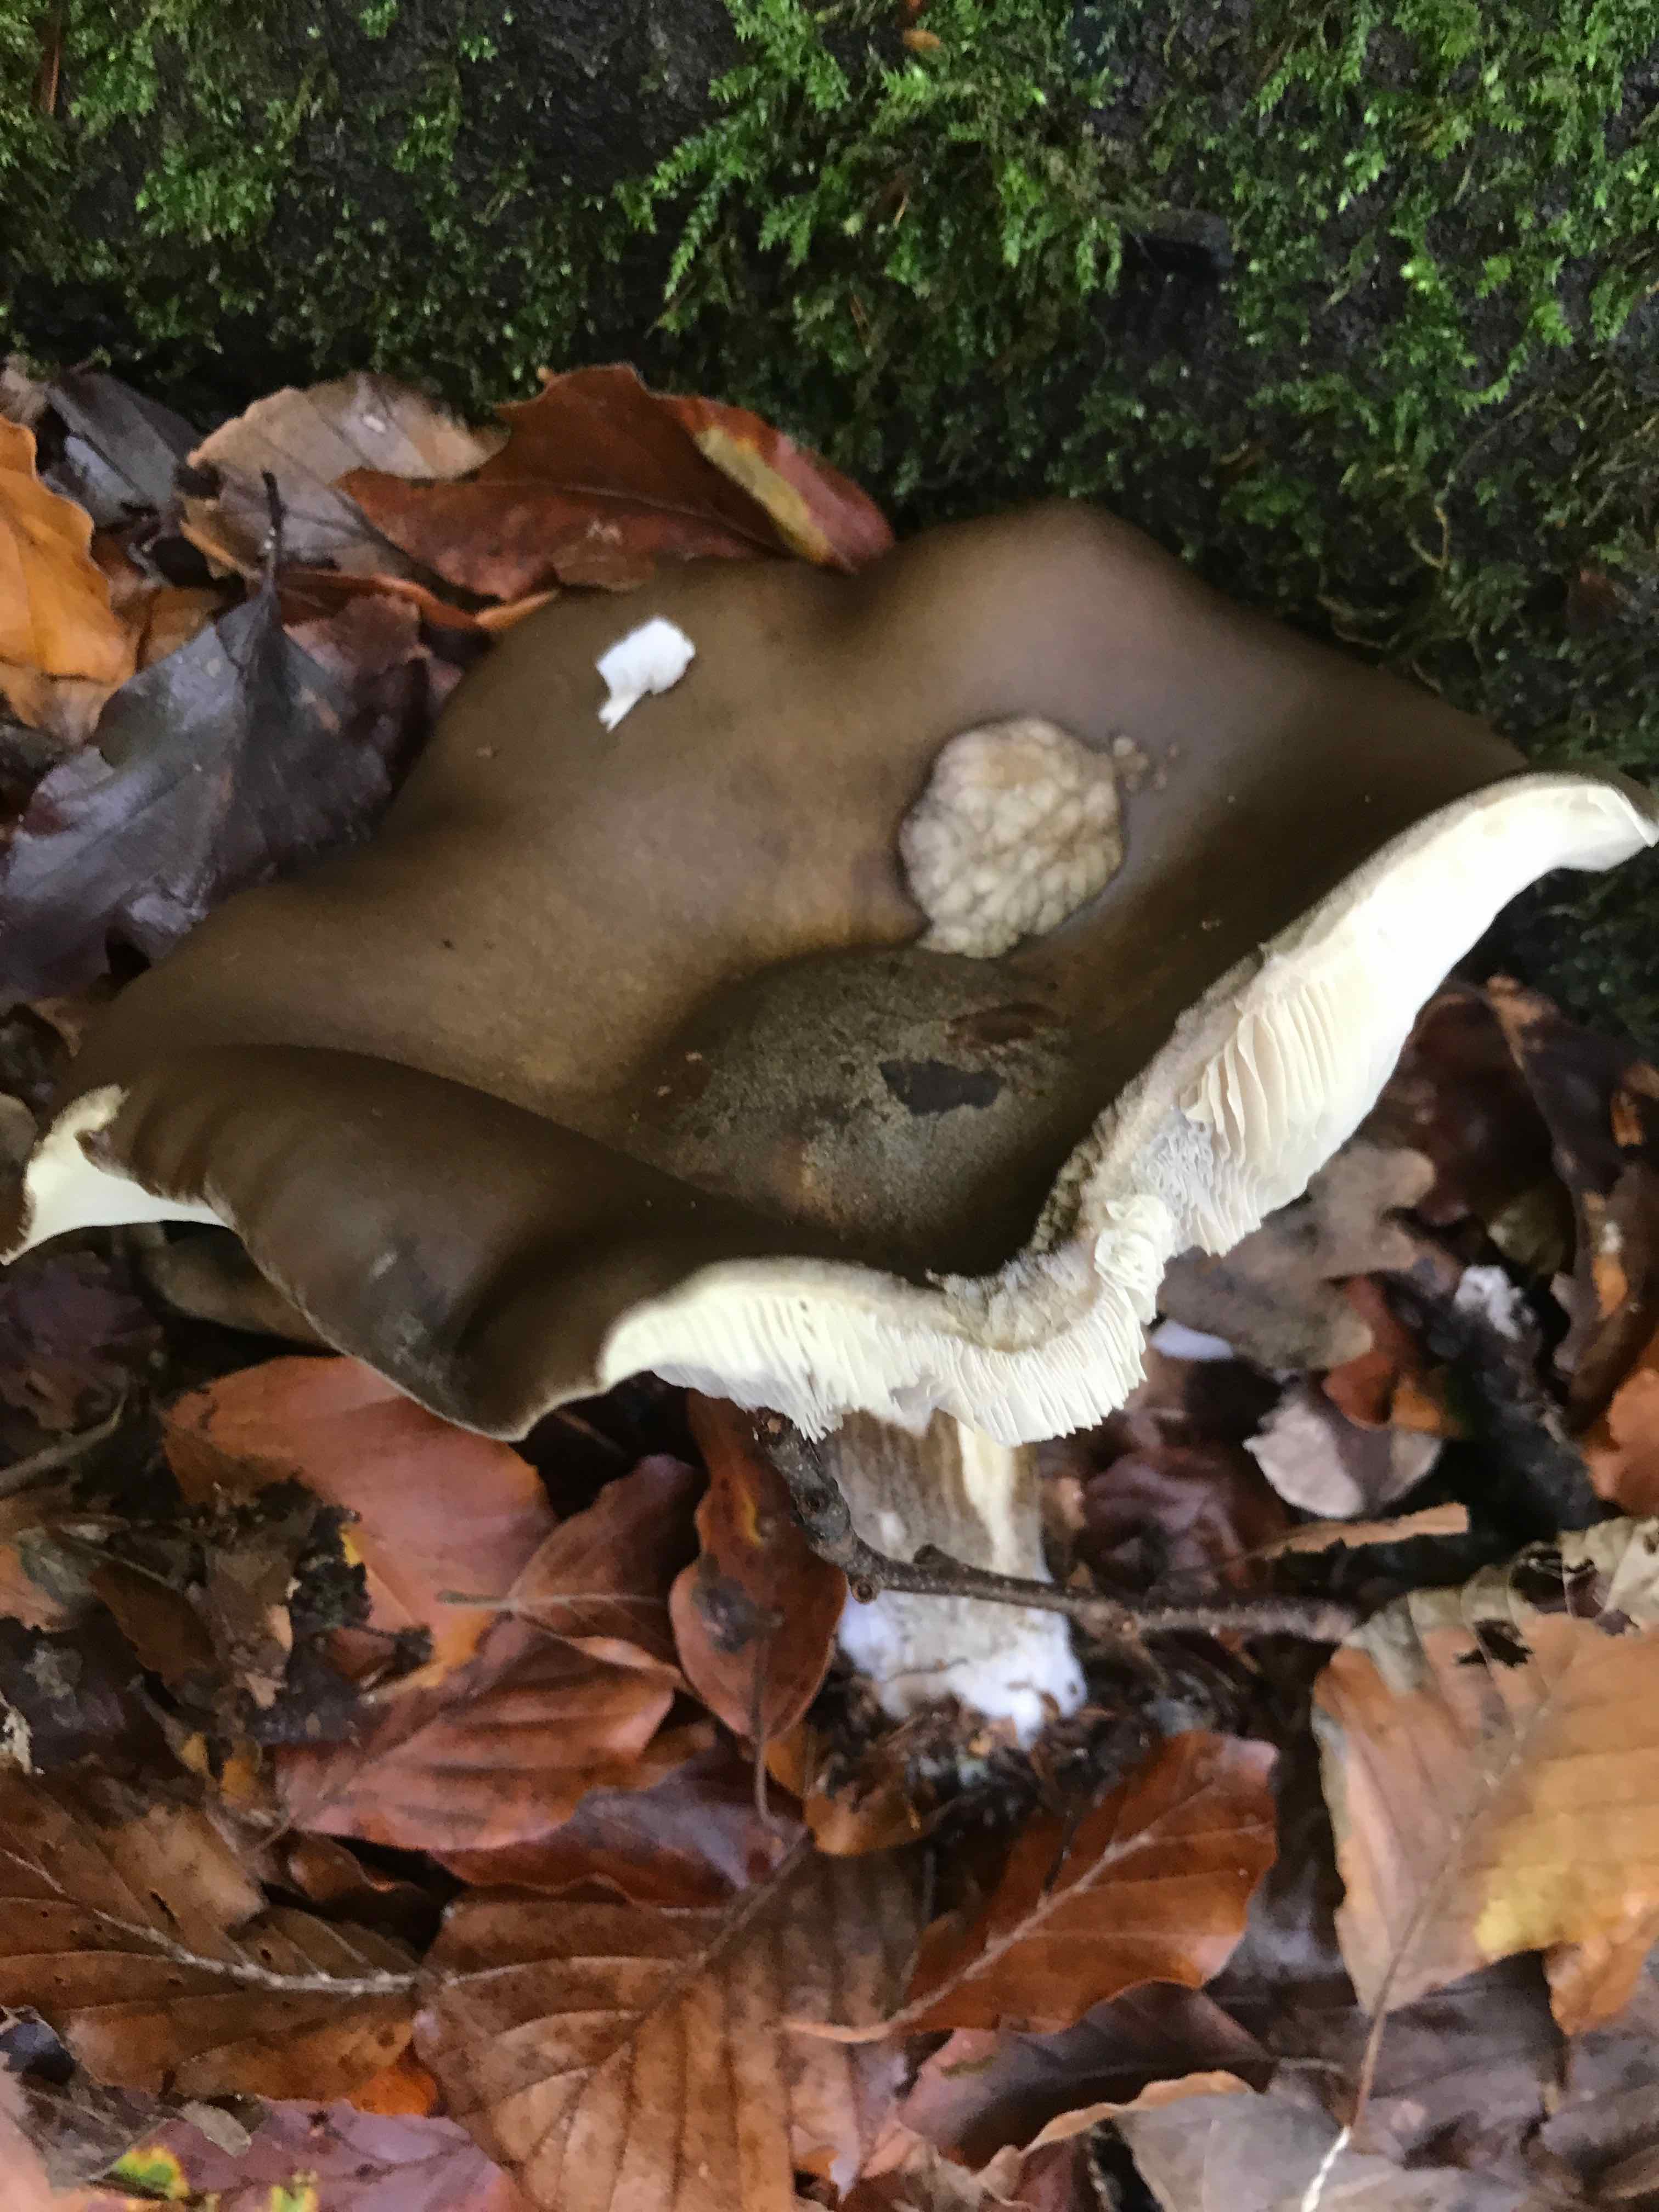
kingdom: Fungi
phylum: Basidiomycota
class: Agaricomycetes
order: Agaricales
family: Tricholomataceae
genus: Melanoleuca
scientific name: Melanoleuca
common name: munkehat
